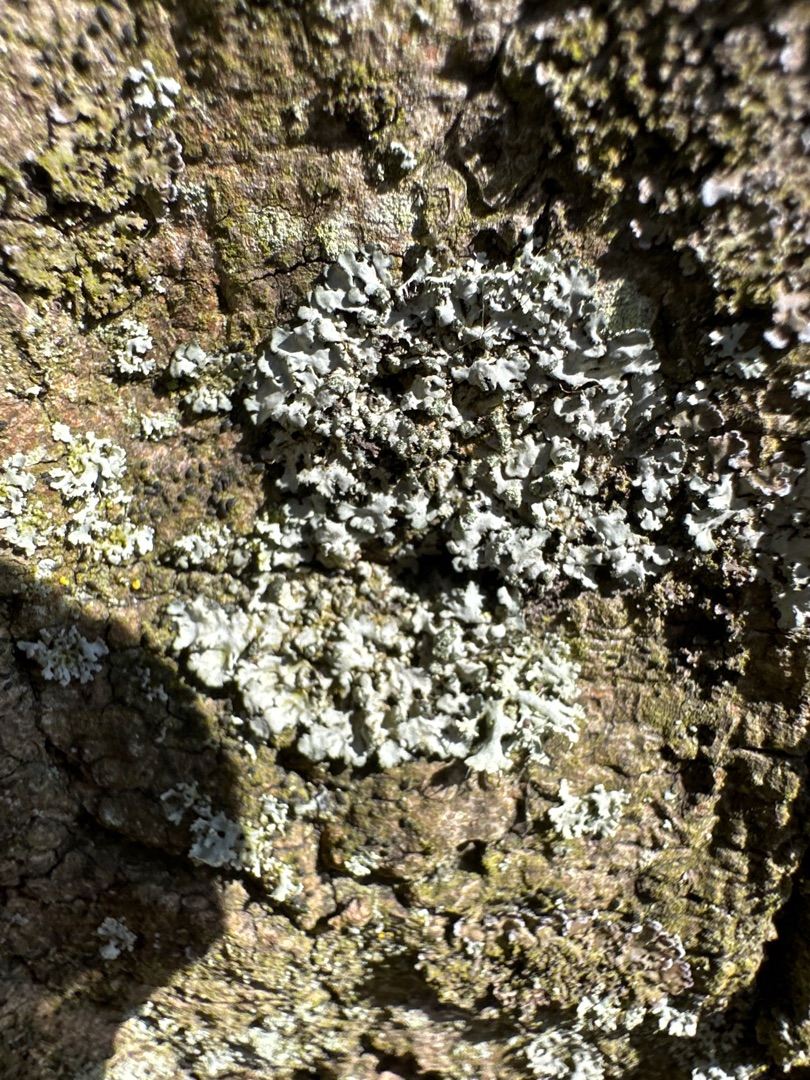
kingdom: Fungi
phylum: Ascomycota
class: Lecanoromycetes
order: Caliciales
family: Physciaceae
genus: Physcia
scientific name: Physcia tenella
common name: Spæd rosetlav
